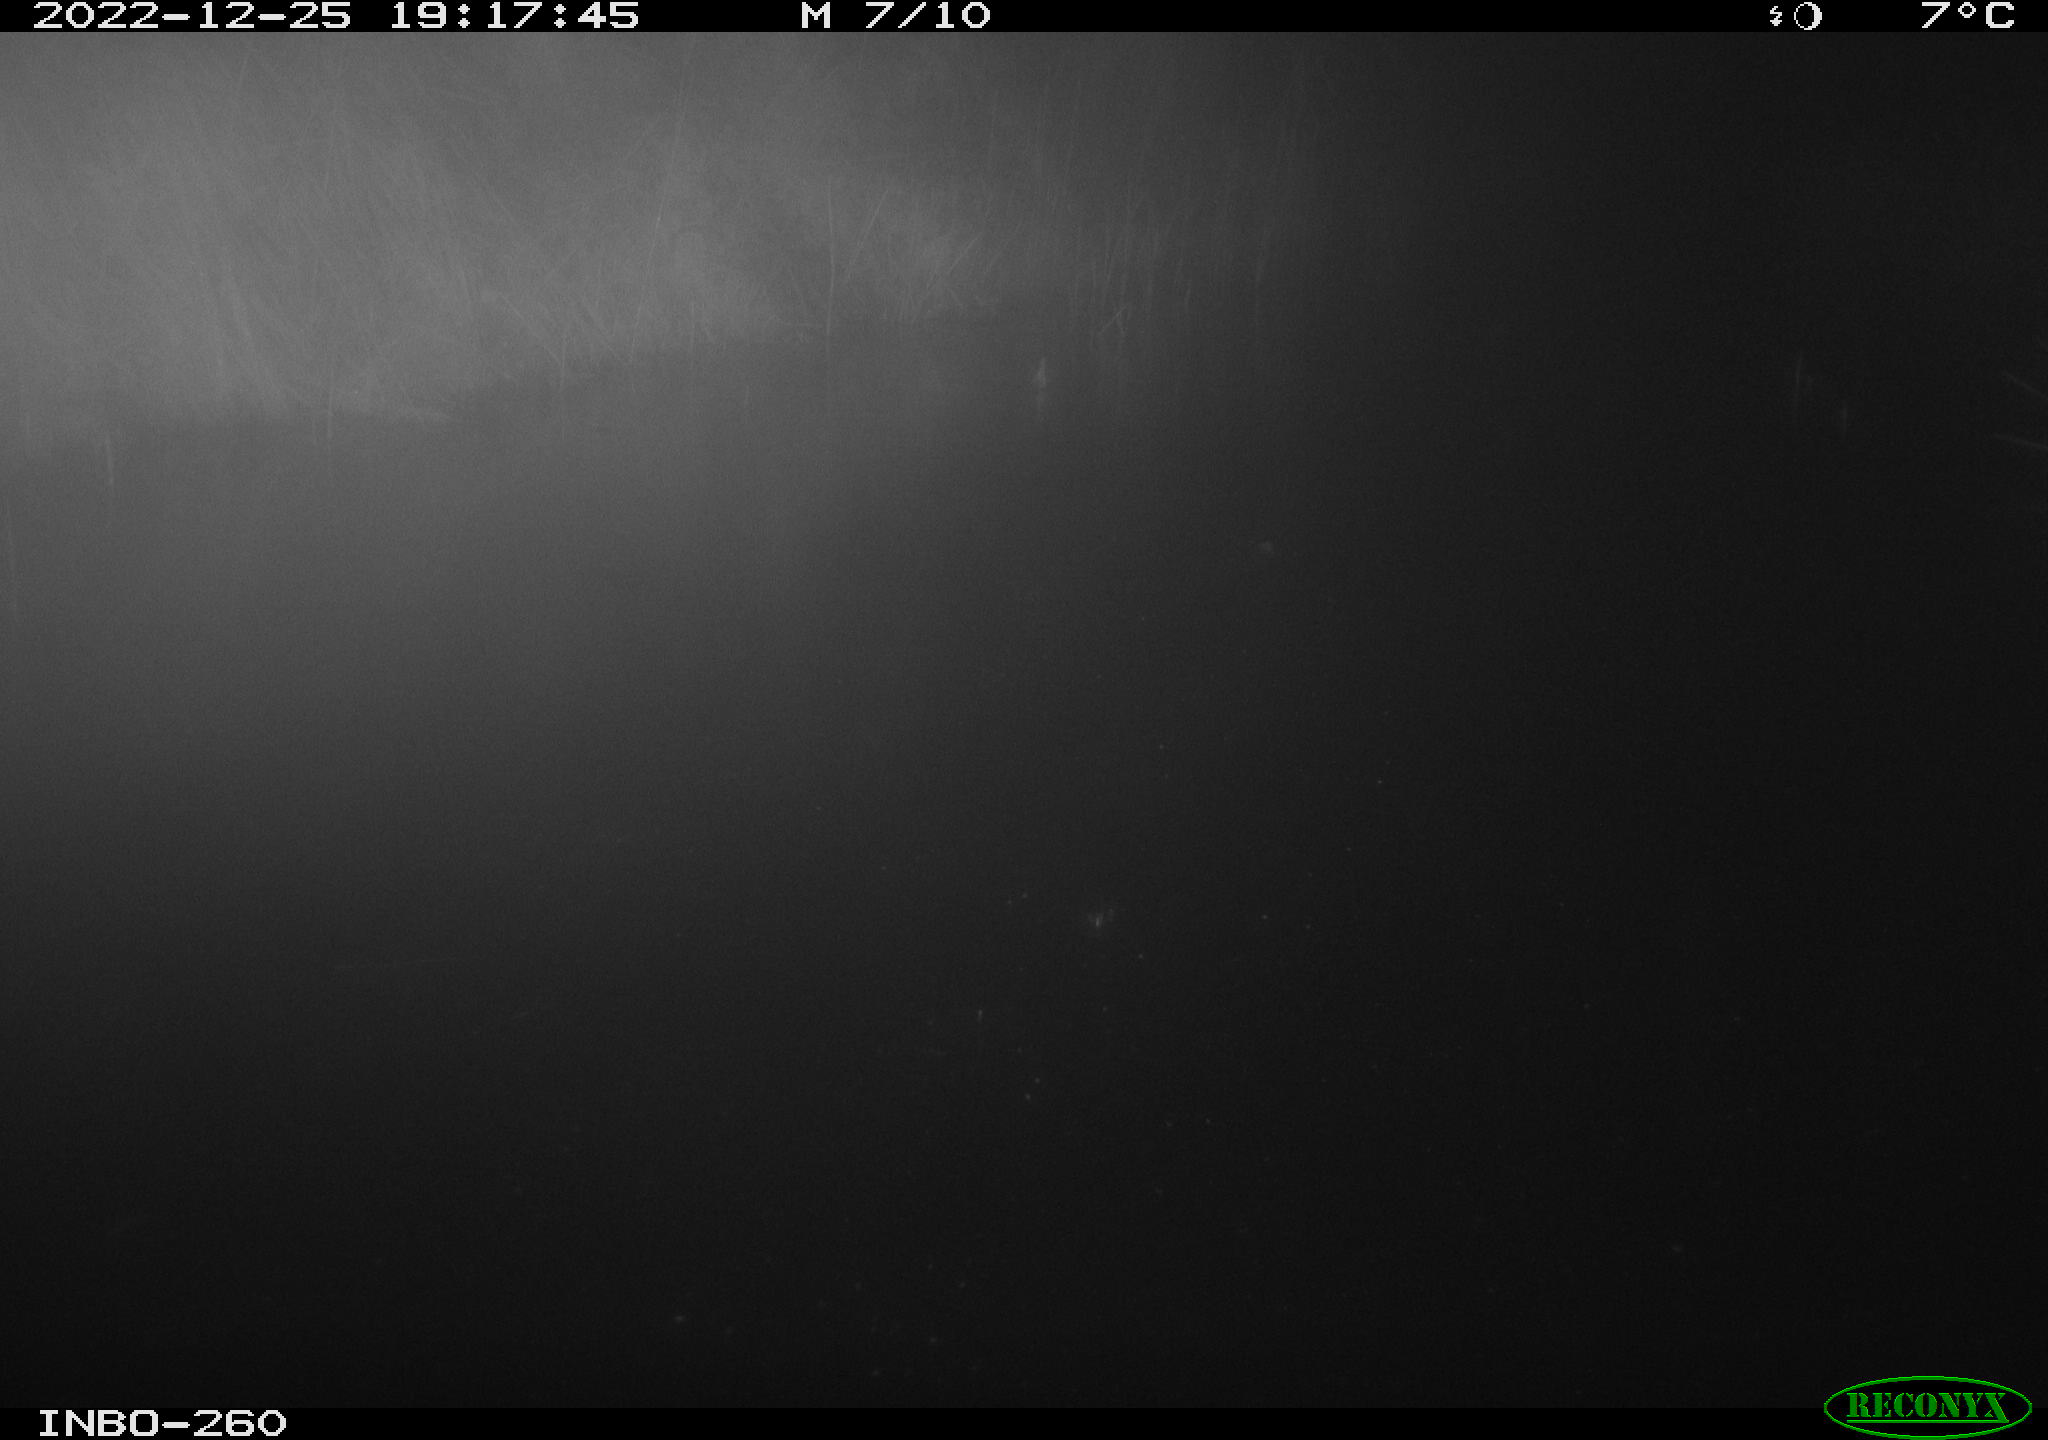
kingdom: Animalia
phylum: Chordata
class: Aves
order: Gruiformes
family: Rallidae
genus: Gallinula
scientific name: Gallinula chloropus
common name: Common moorhen
